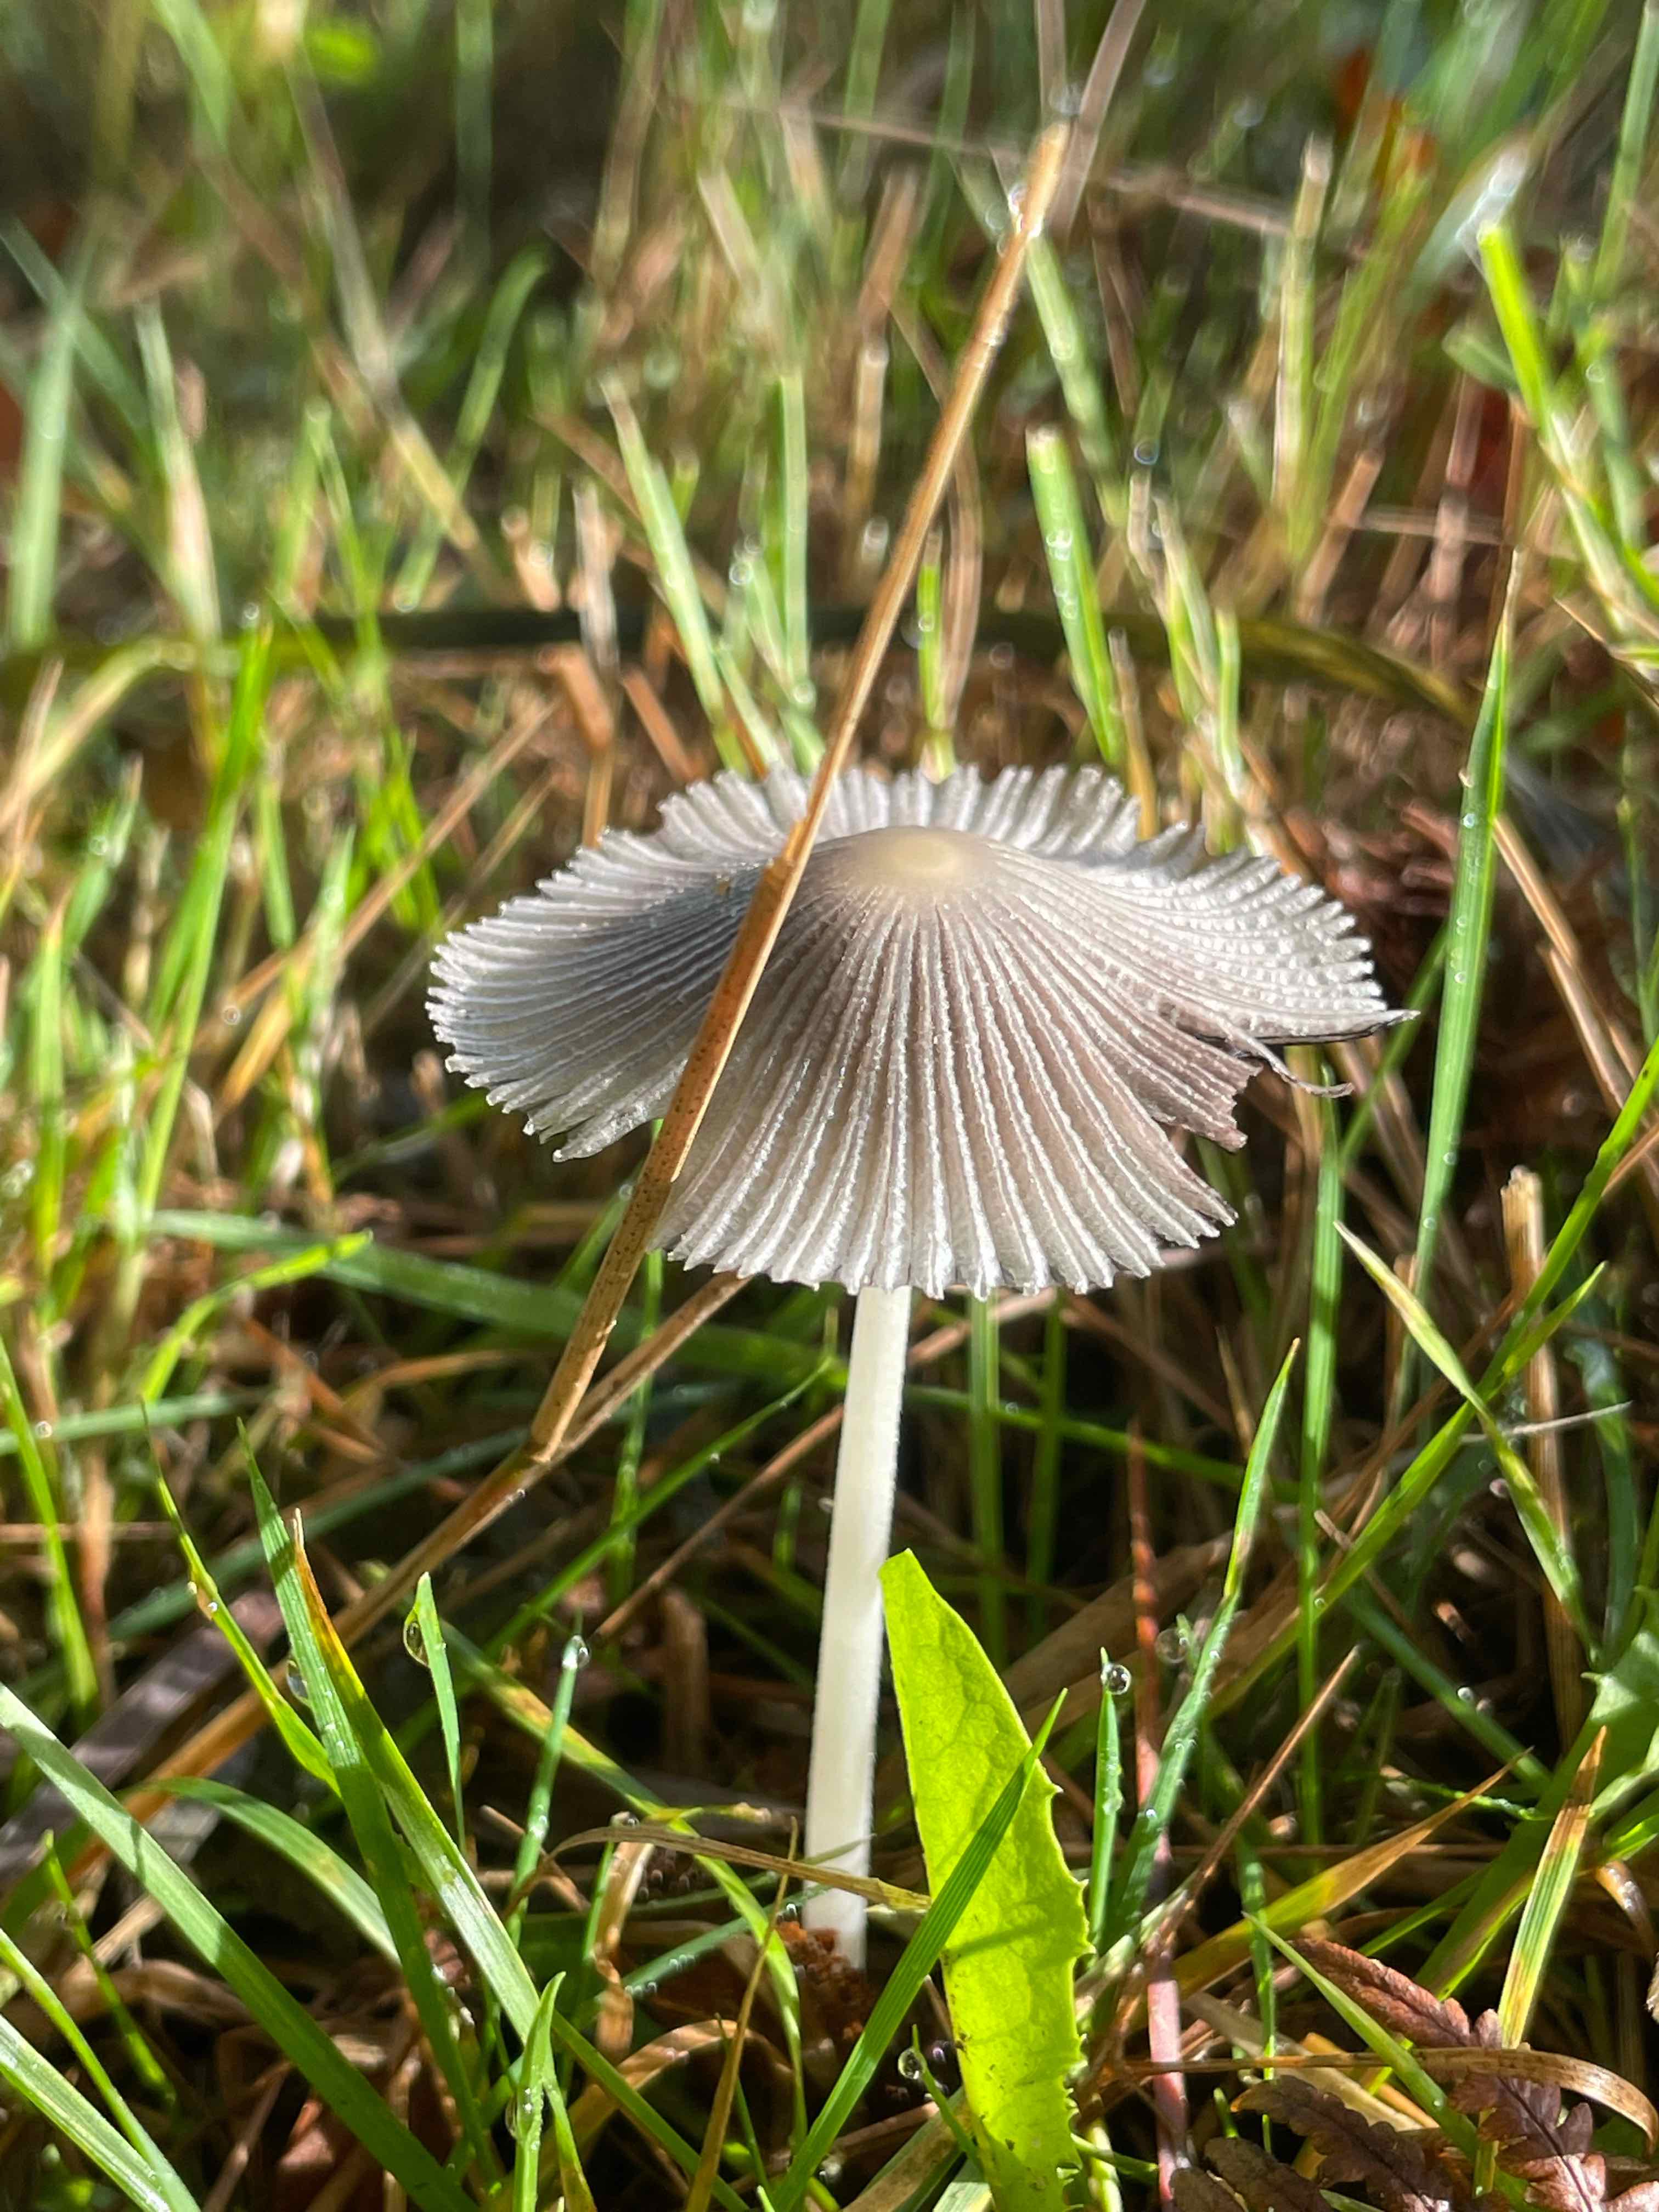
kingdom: Fungi
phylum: Basidiomycota
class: Agaricomycetes
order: Agaricales
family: Psathyrellaceae
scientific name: Psathyrellaceae
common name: mørkhatfamilien
